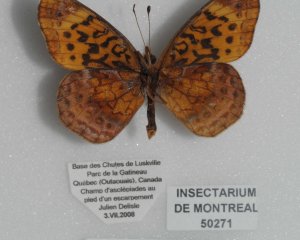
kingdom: Animalia
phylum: Arthropoda
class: Insecta
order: Lepidoptera
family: Nymphalidae
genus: Clossiana
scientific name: Clossiana toddi
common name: Meadow Fritillary
